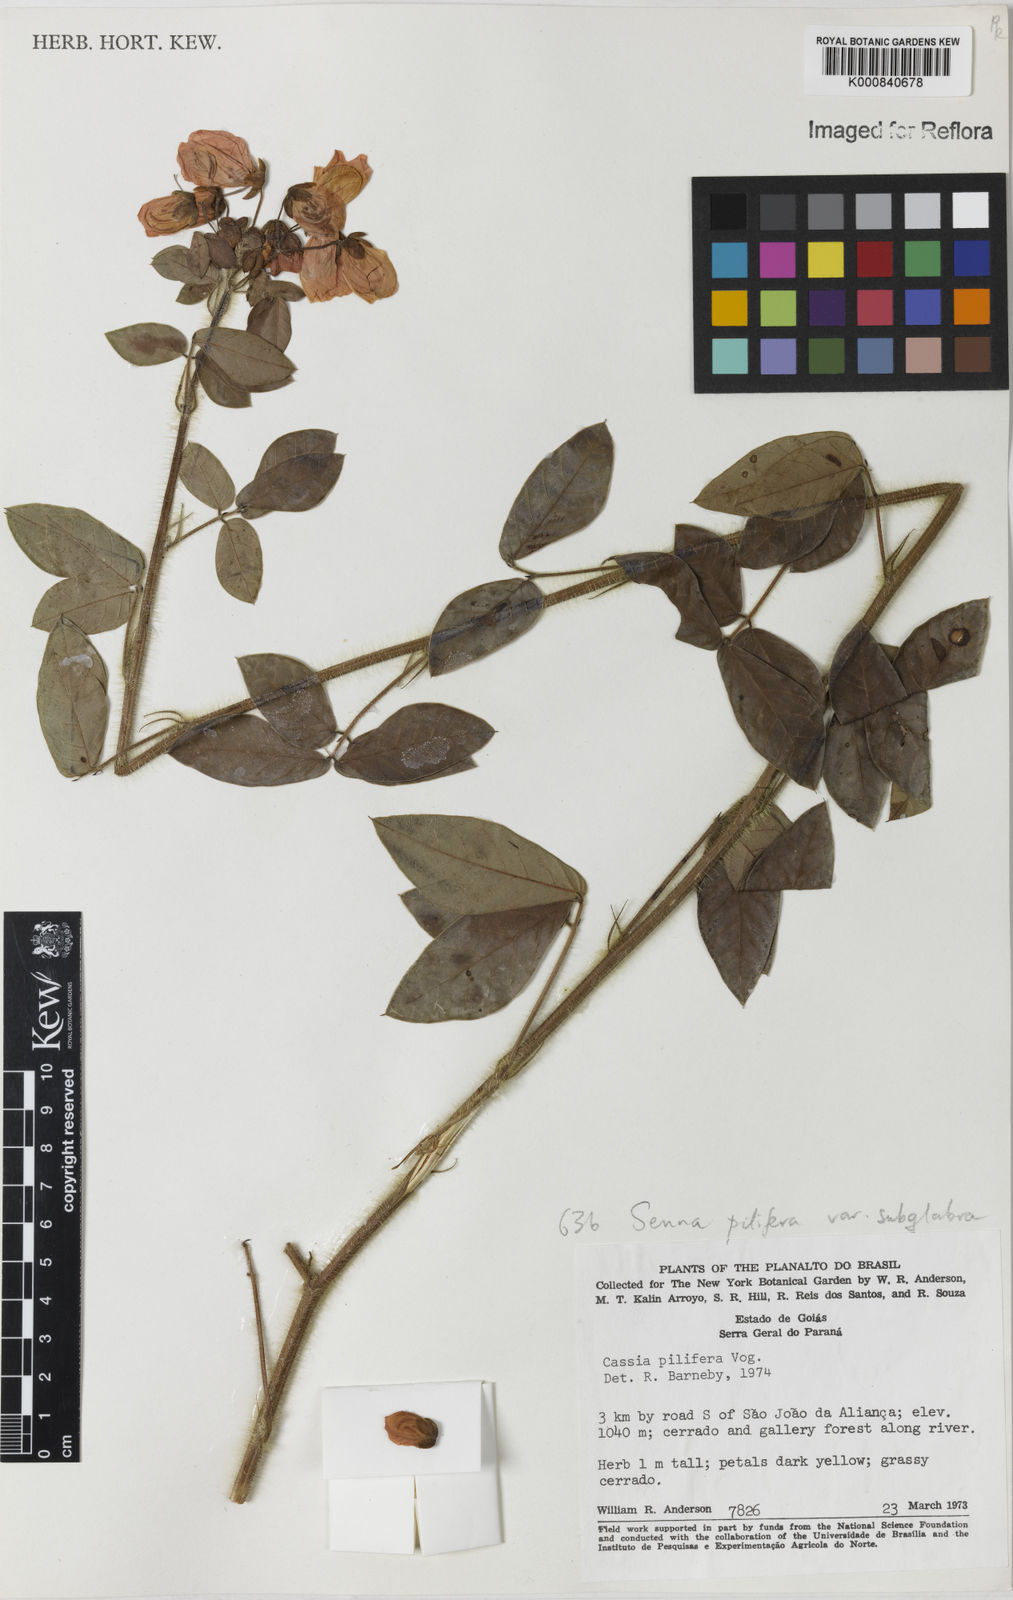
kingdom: Plantae
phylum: Tracheophyta
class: Magnoliopsida
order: Fabales
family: Fabaceae
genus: Senna
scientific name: Senna pilifera
